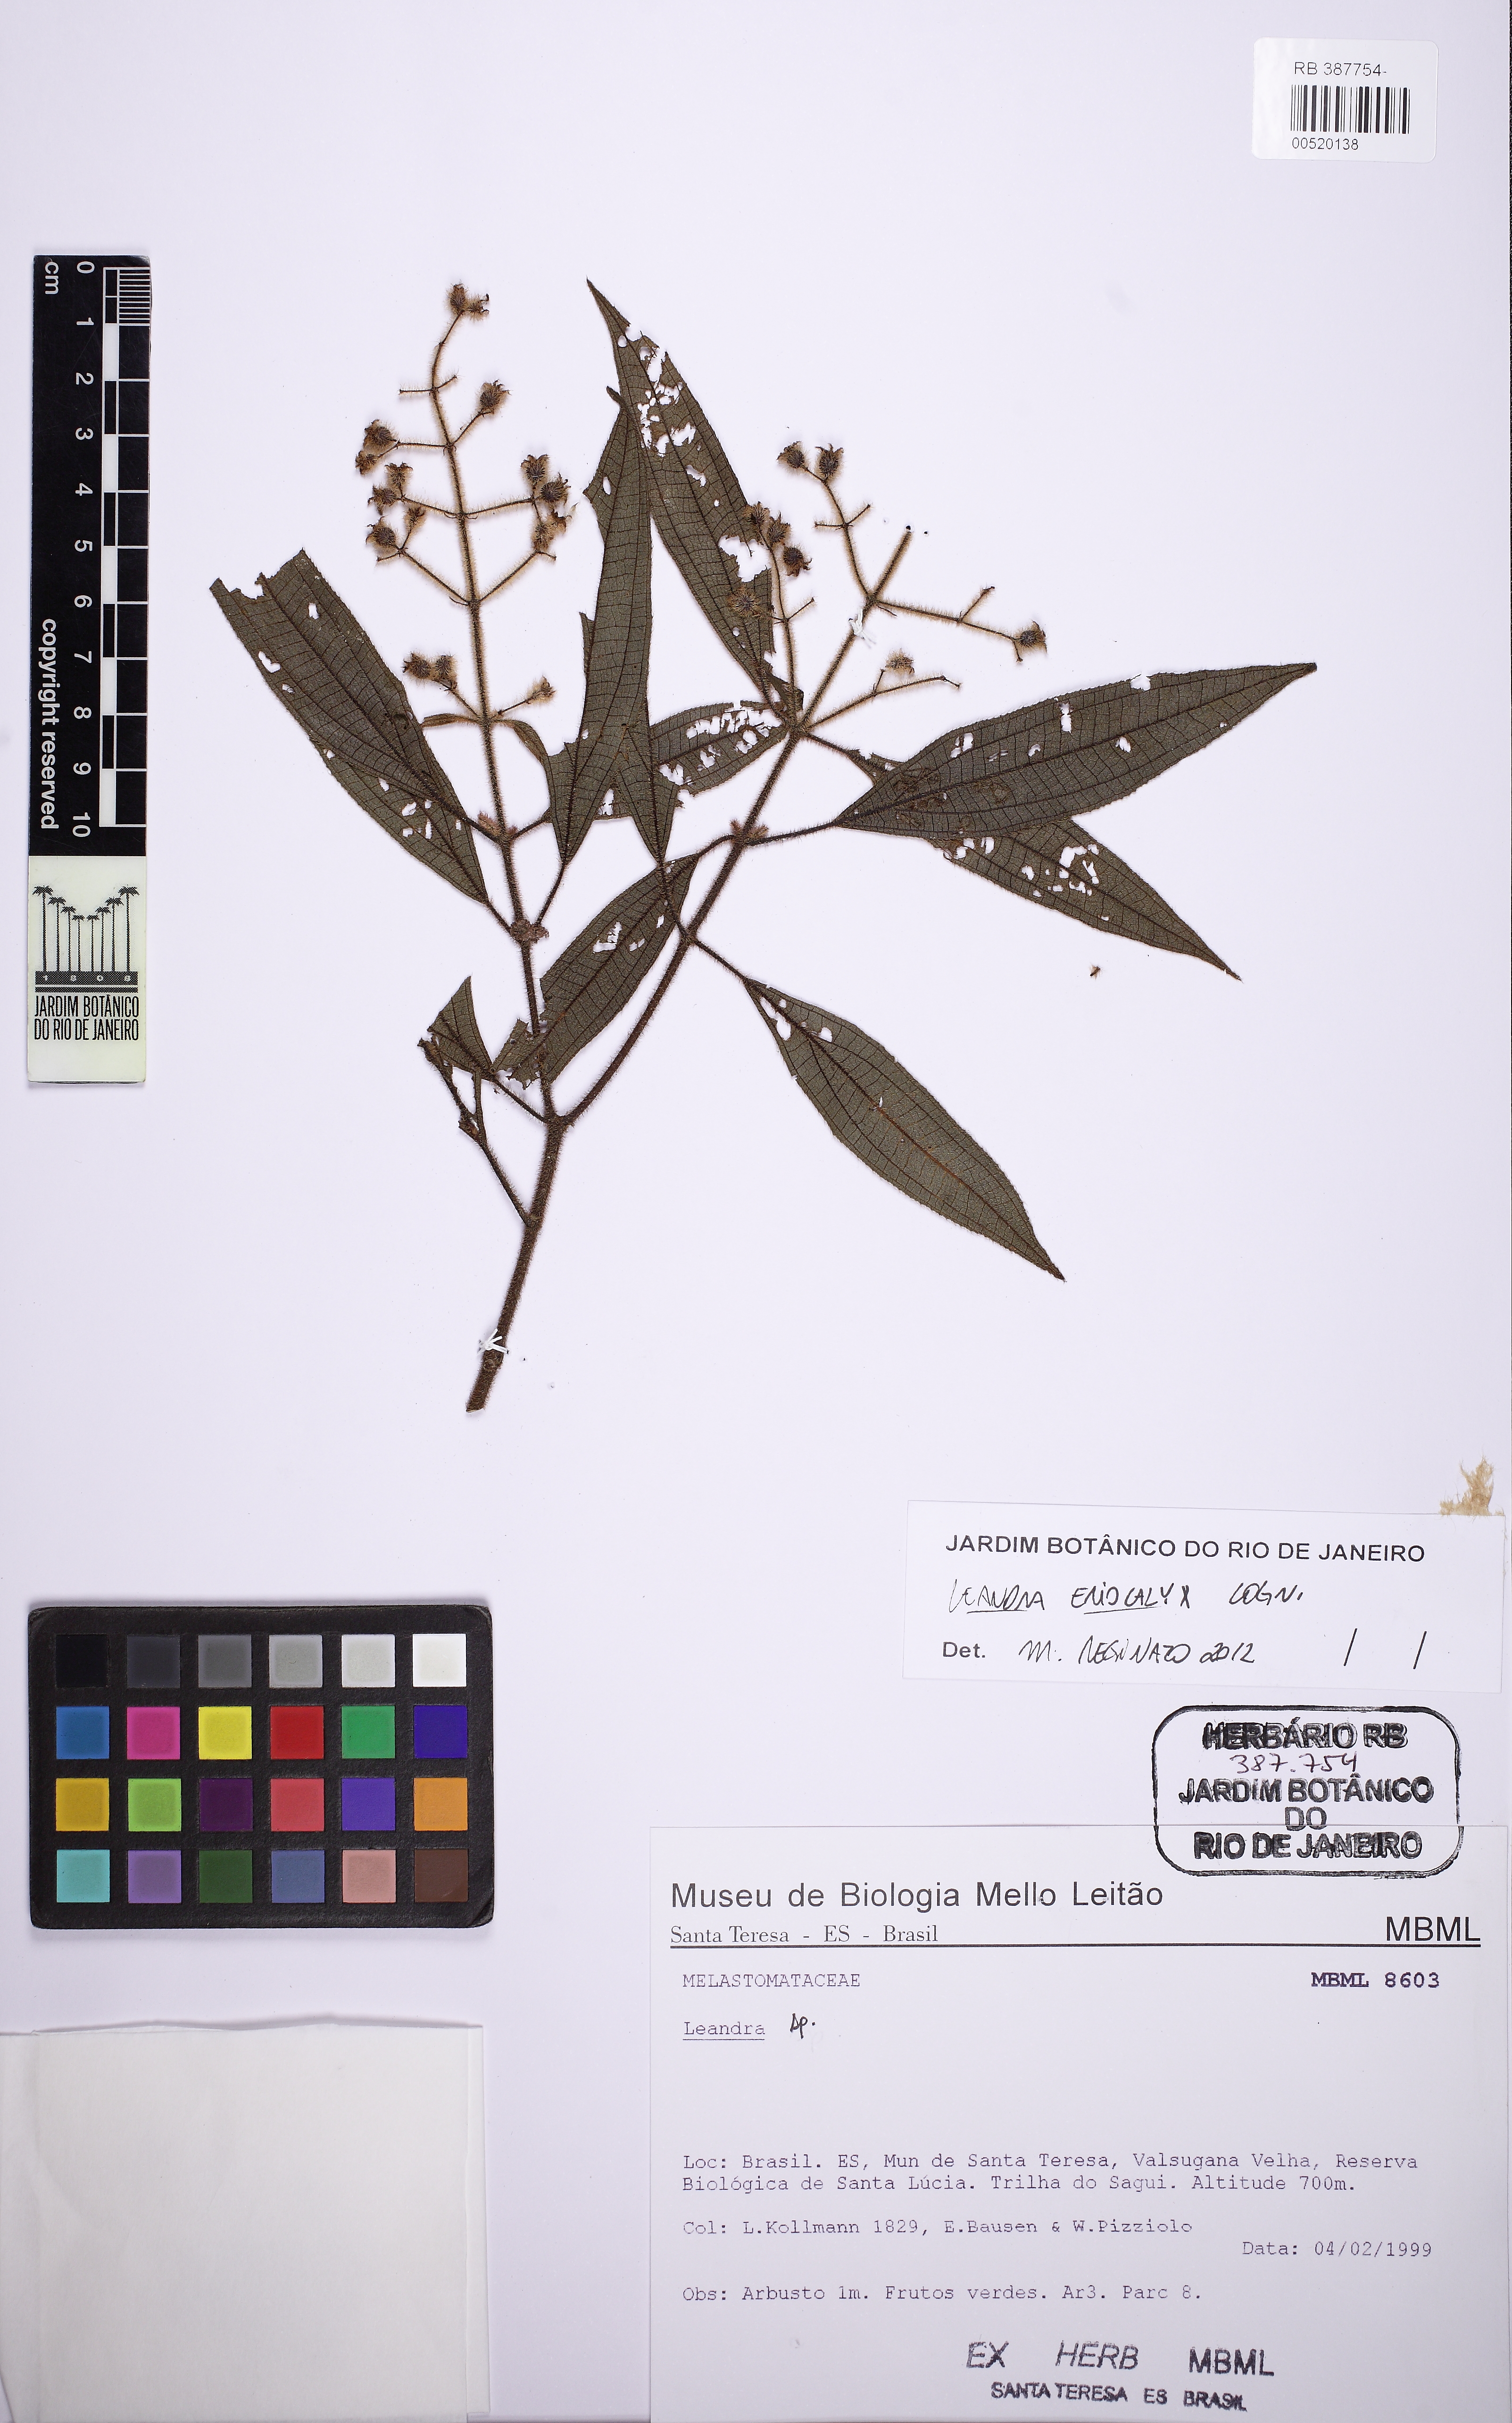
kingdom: Plantae
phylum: Tracheophyta
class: Magnoliopsida
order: Myrtales
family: Melastomataceae
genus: Miconia
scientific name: Miconia leaeriocalyx
